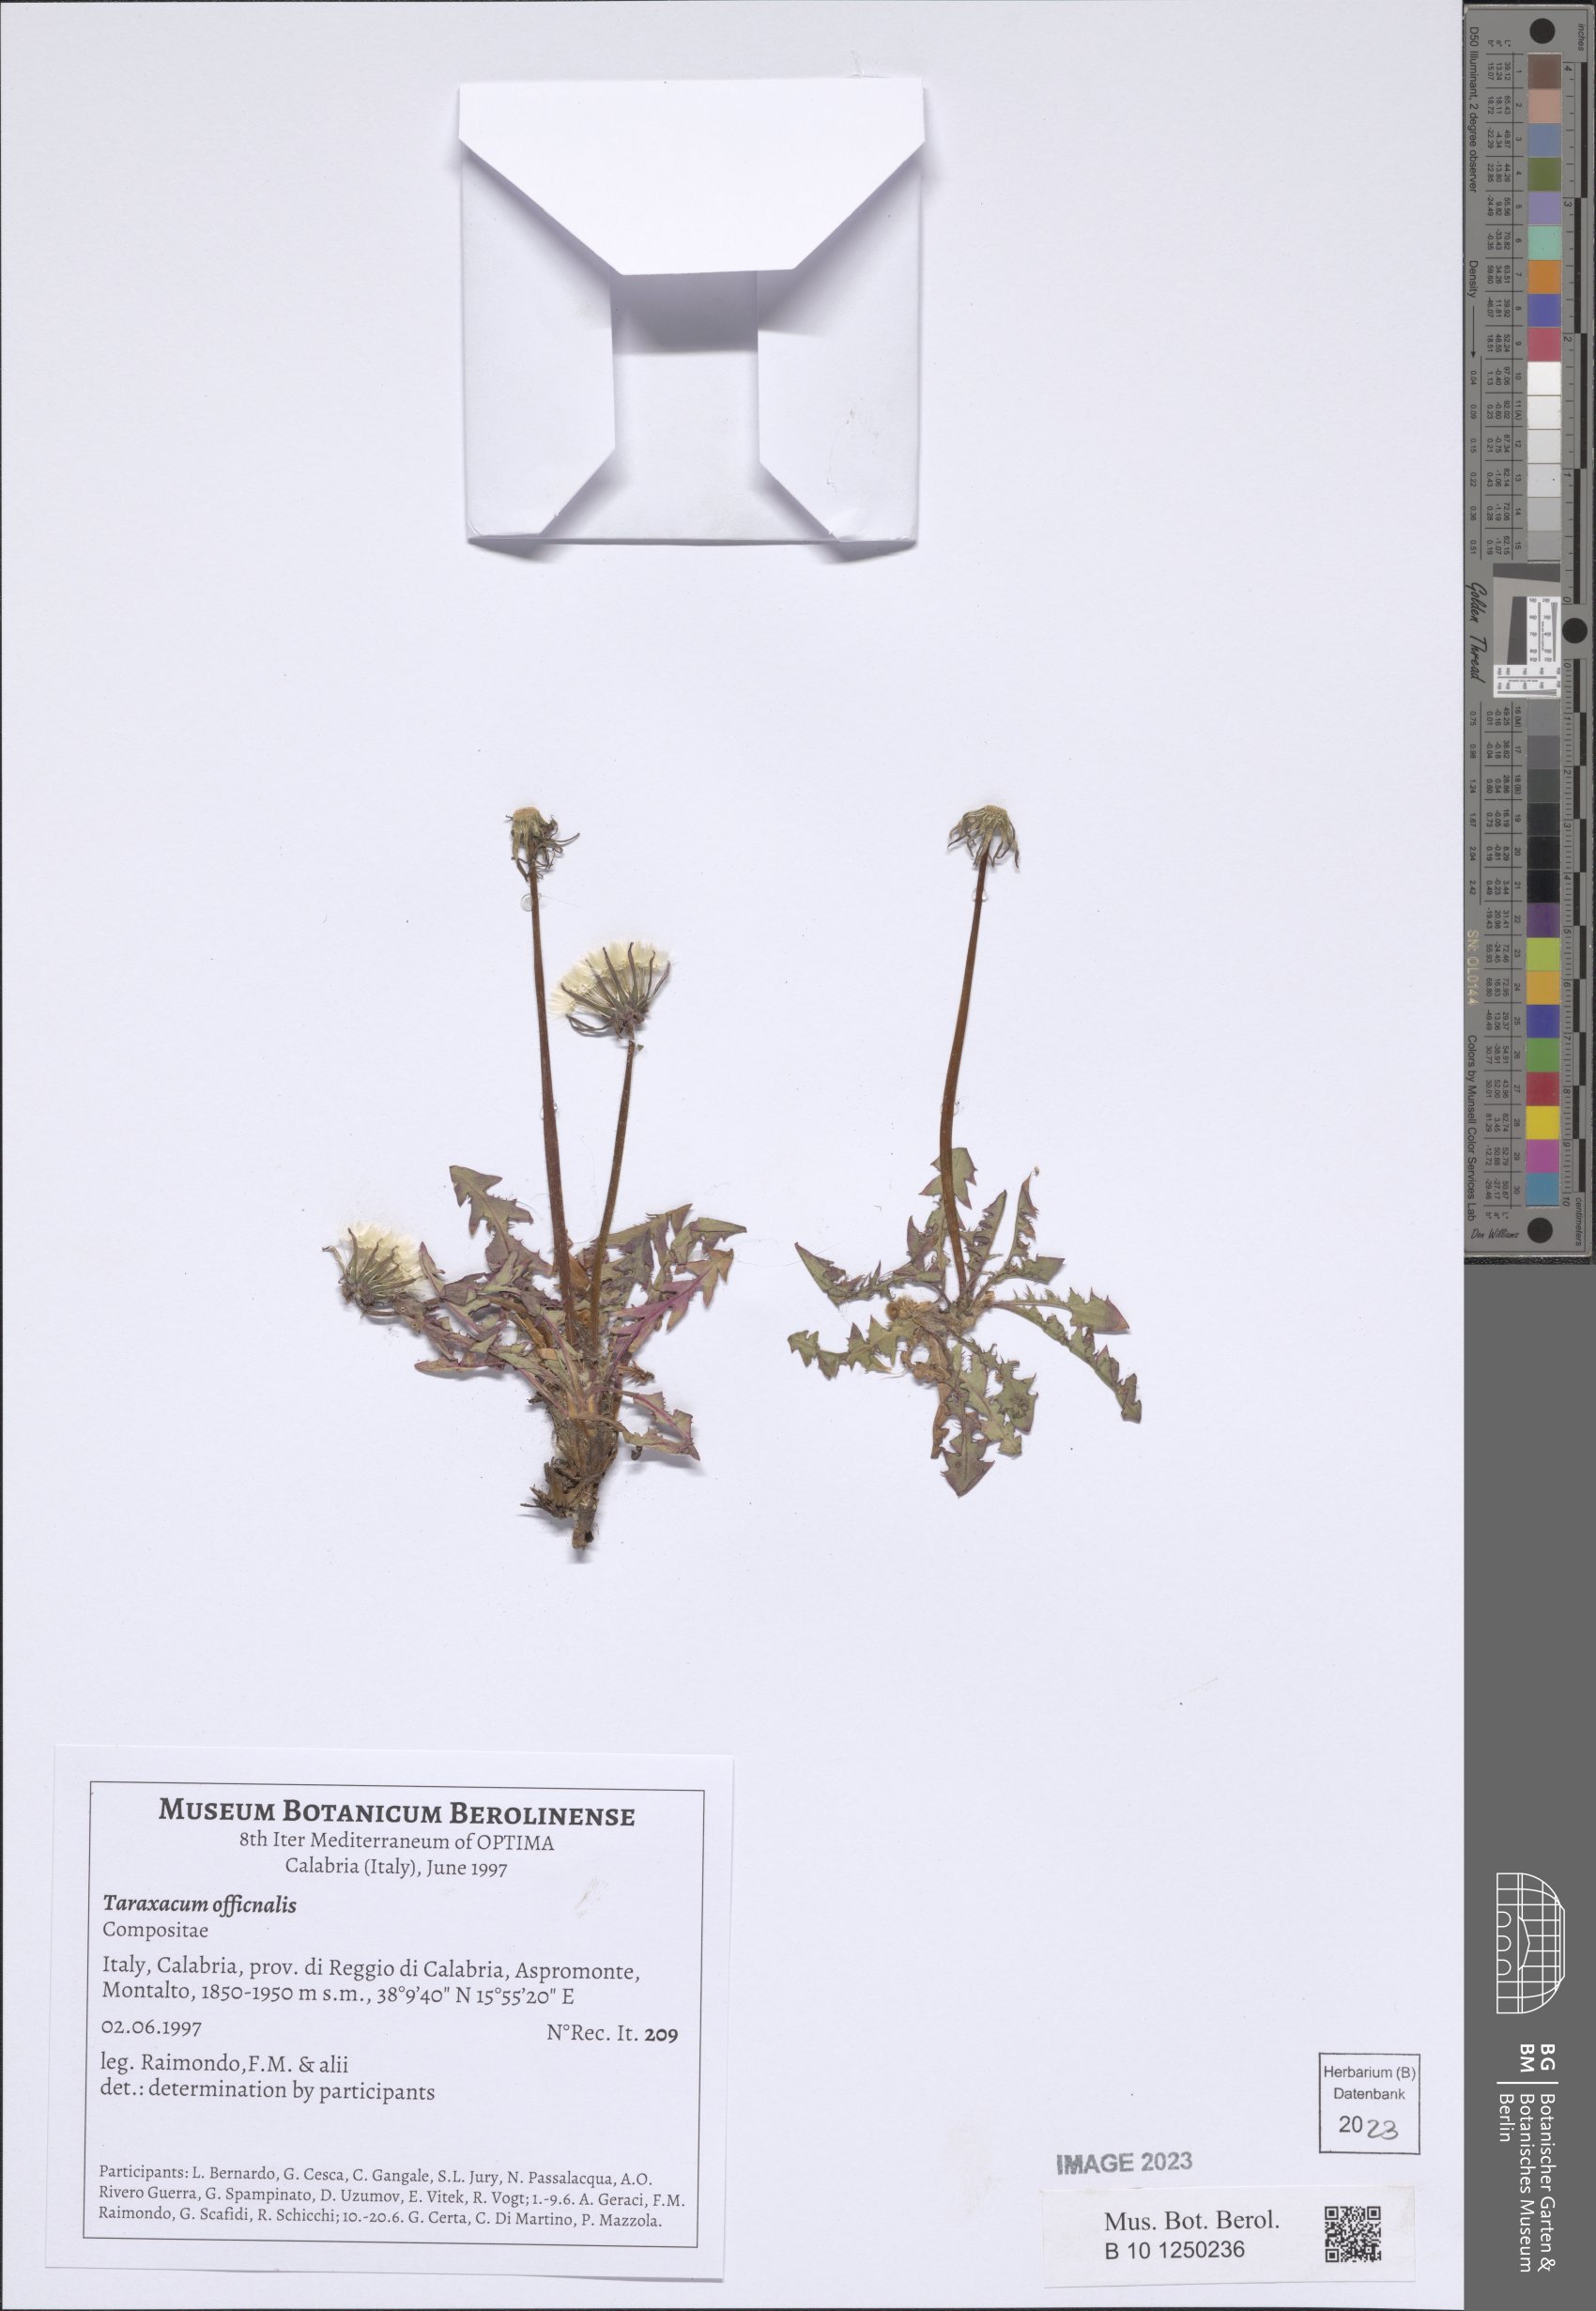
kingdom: Plantae
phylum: Tracheophyta
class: Magnoliopsida
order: Asterales
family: Asteraceae
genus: Taraxacum
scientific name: Taraxacum officinale
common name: Common dandelion
